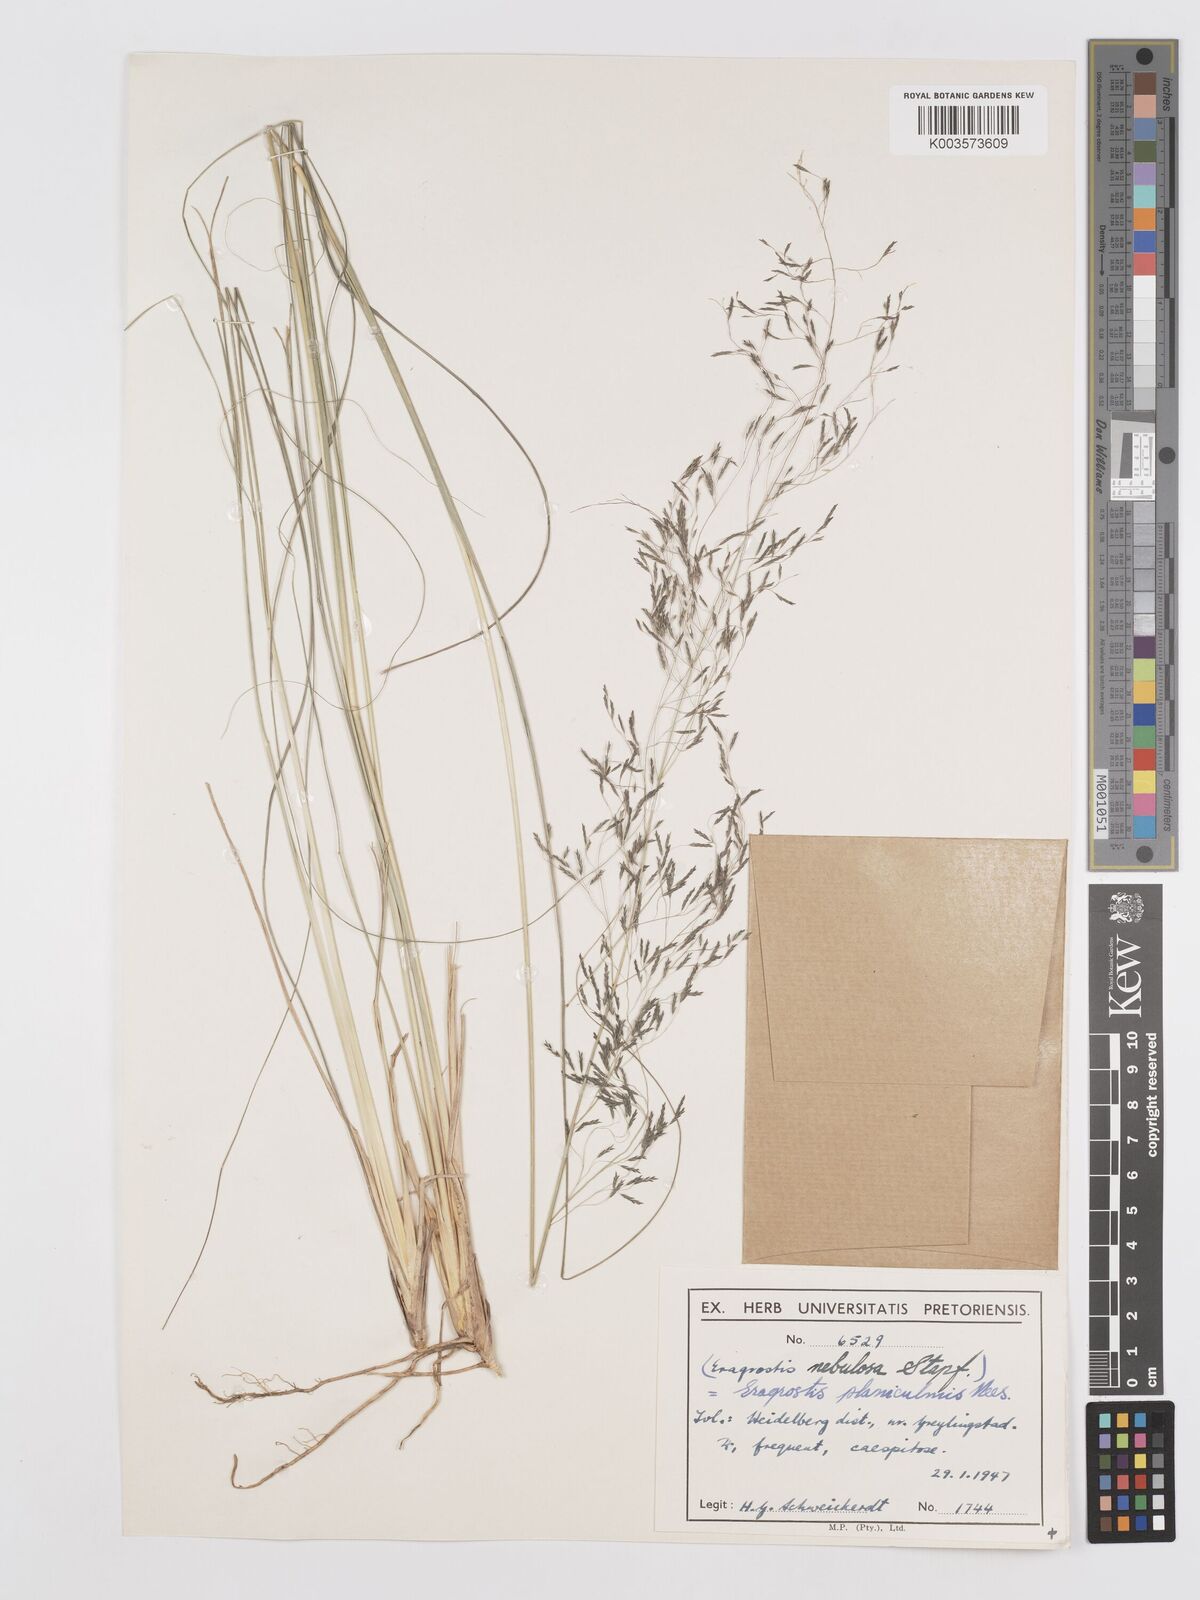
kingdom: Plantae
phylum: Tracheophyta
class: Liliopsida
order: Poales
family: Poaceae
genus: Eragrostis
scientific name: Eragrostis planiculmis
